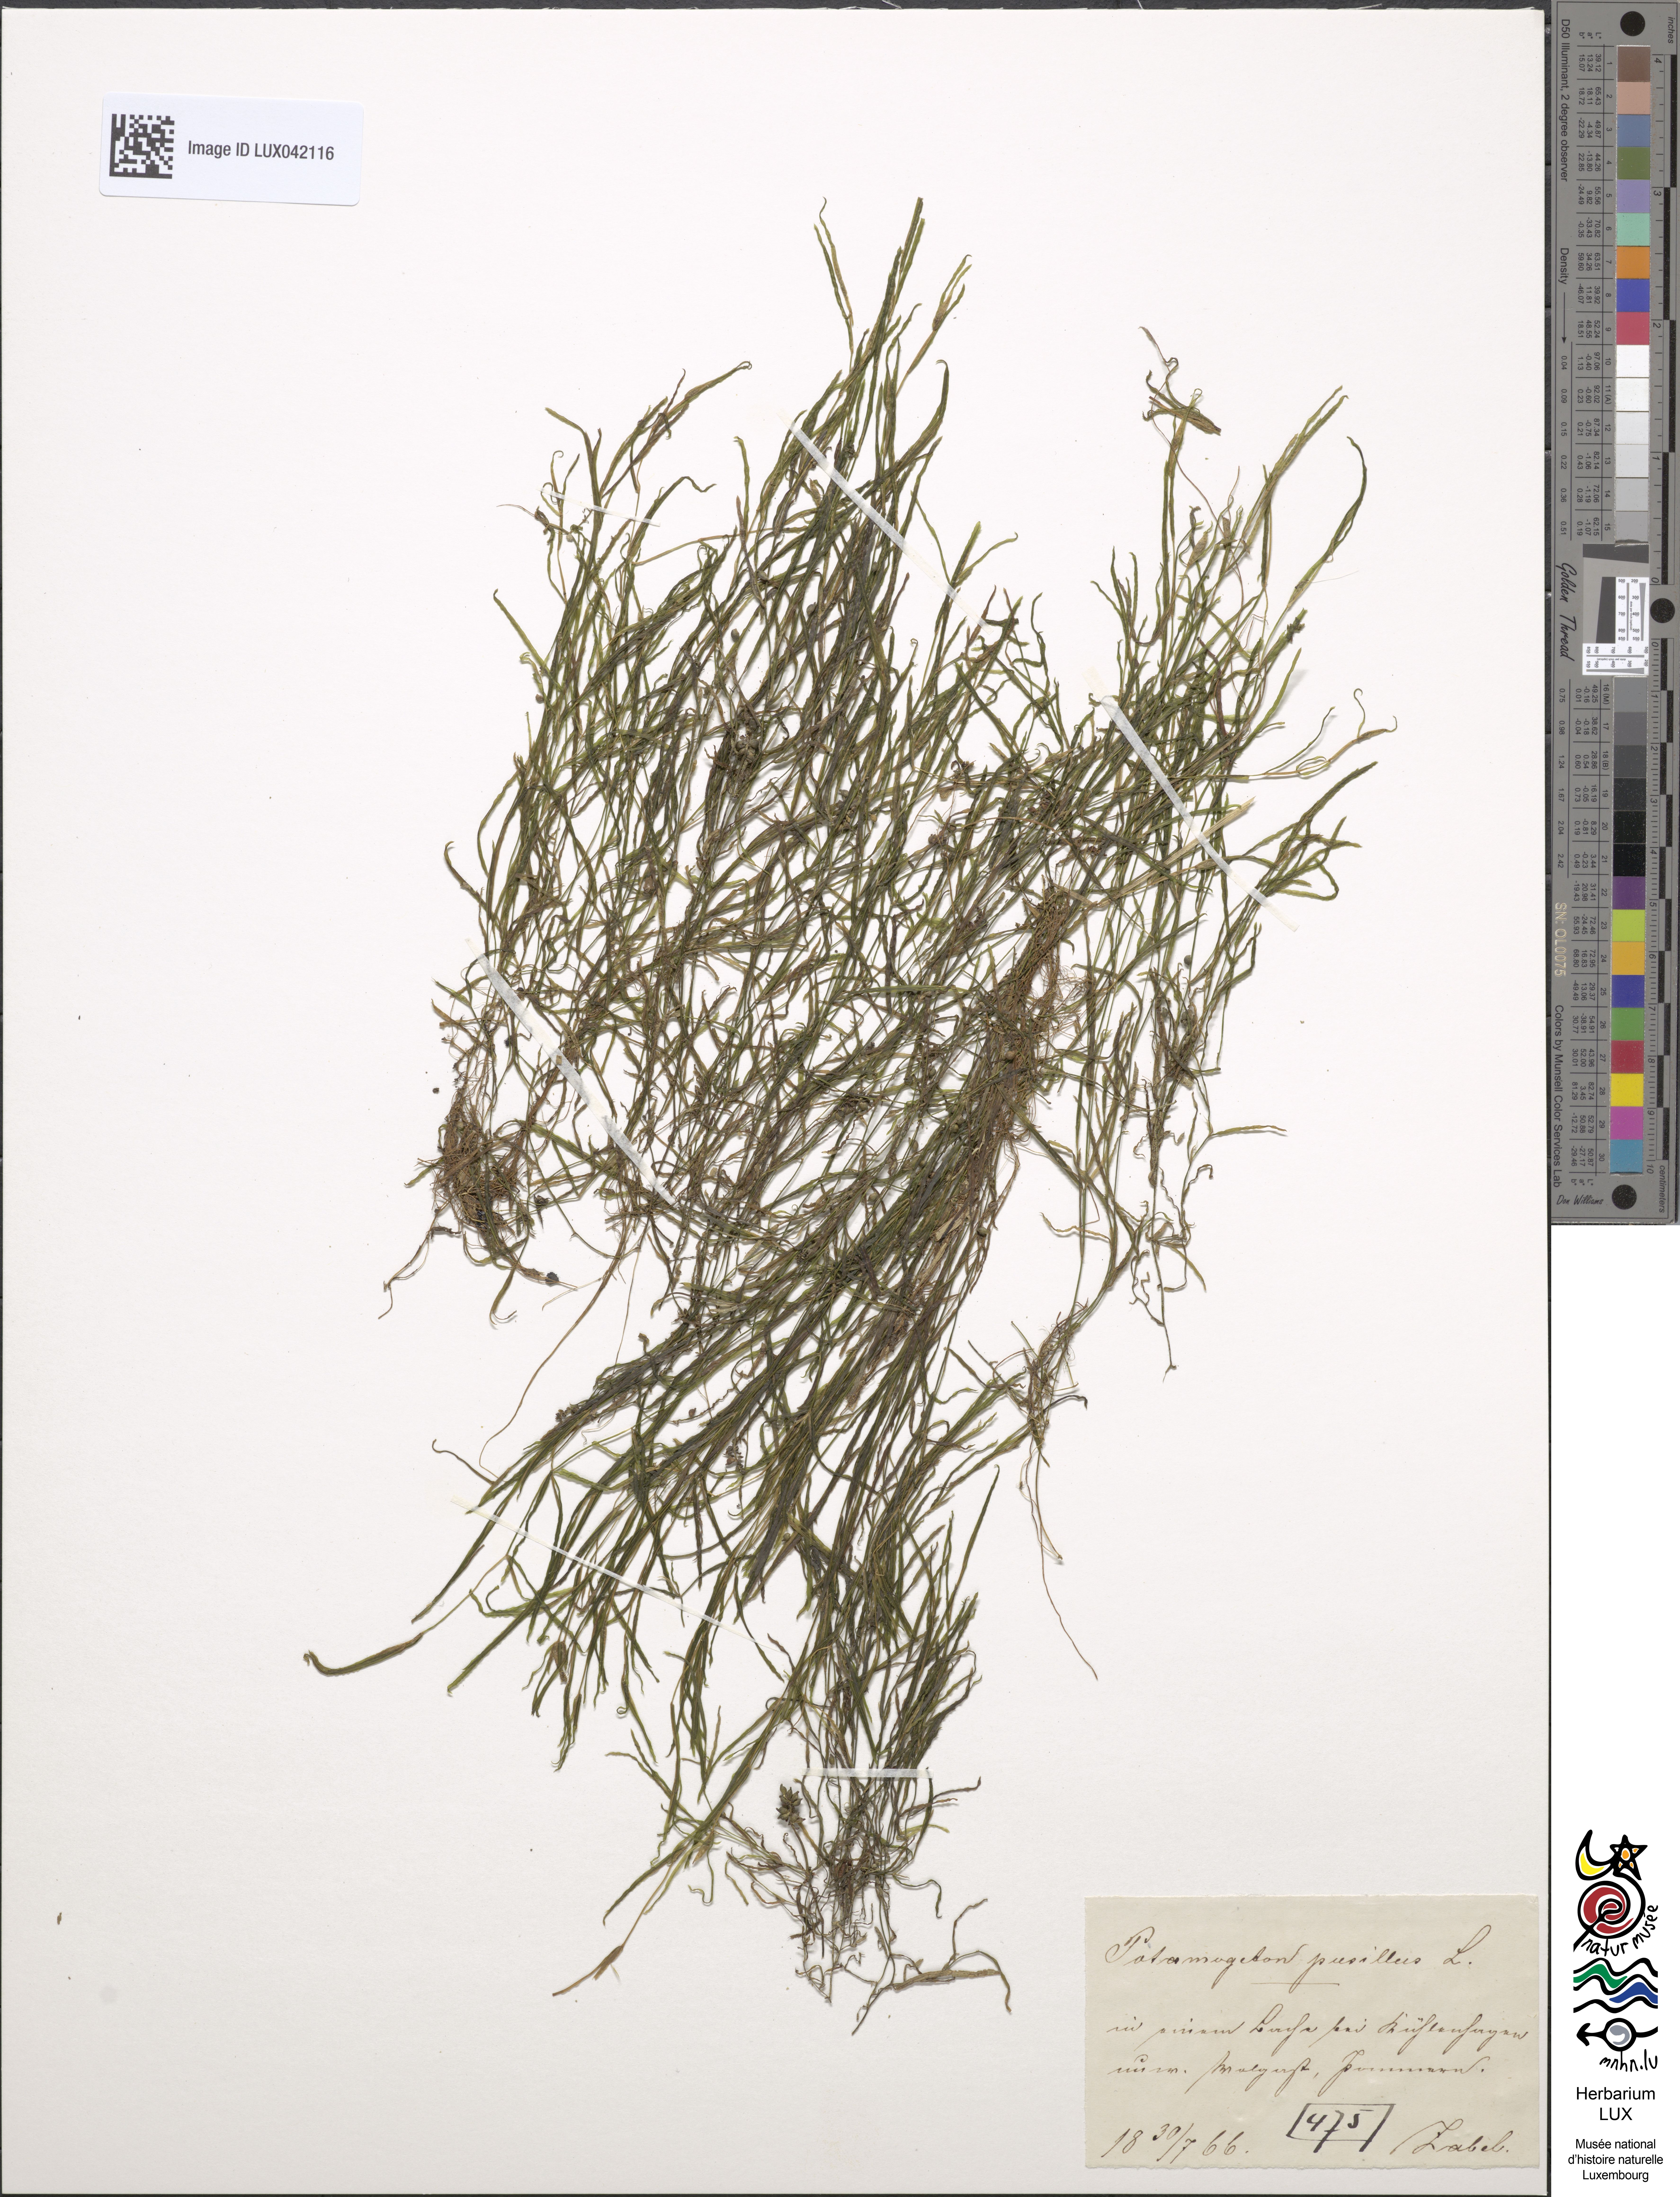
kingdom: Plantae
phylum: Tracheophyta
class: Liliopsida
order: Alismatales
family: Potamogetonaceae
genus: Potamogeton
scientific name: Potamogeton pusillus
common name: Lesser pondweed
